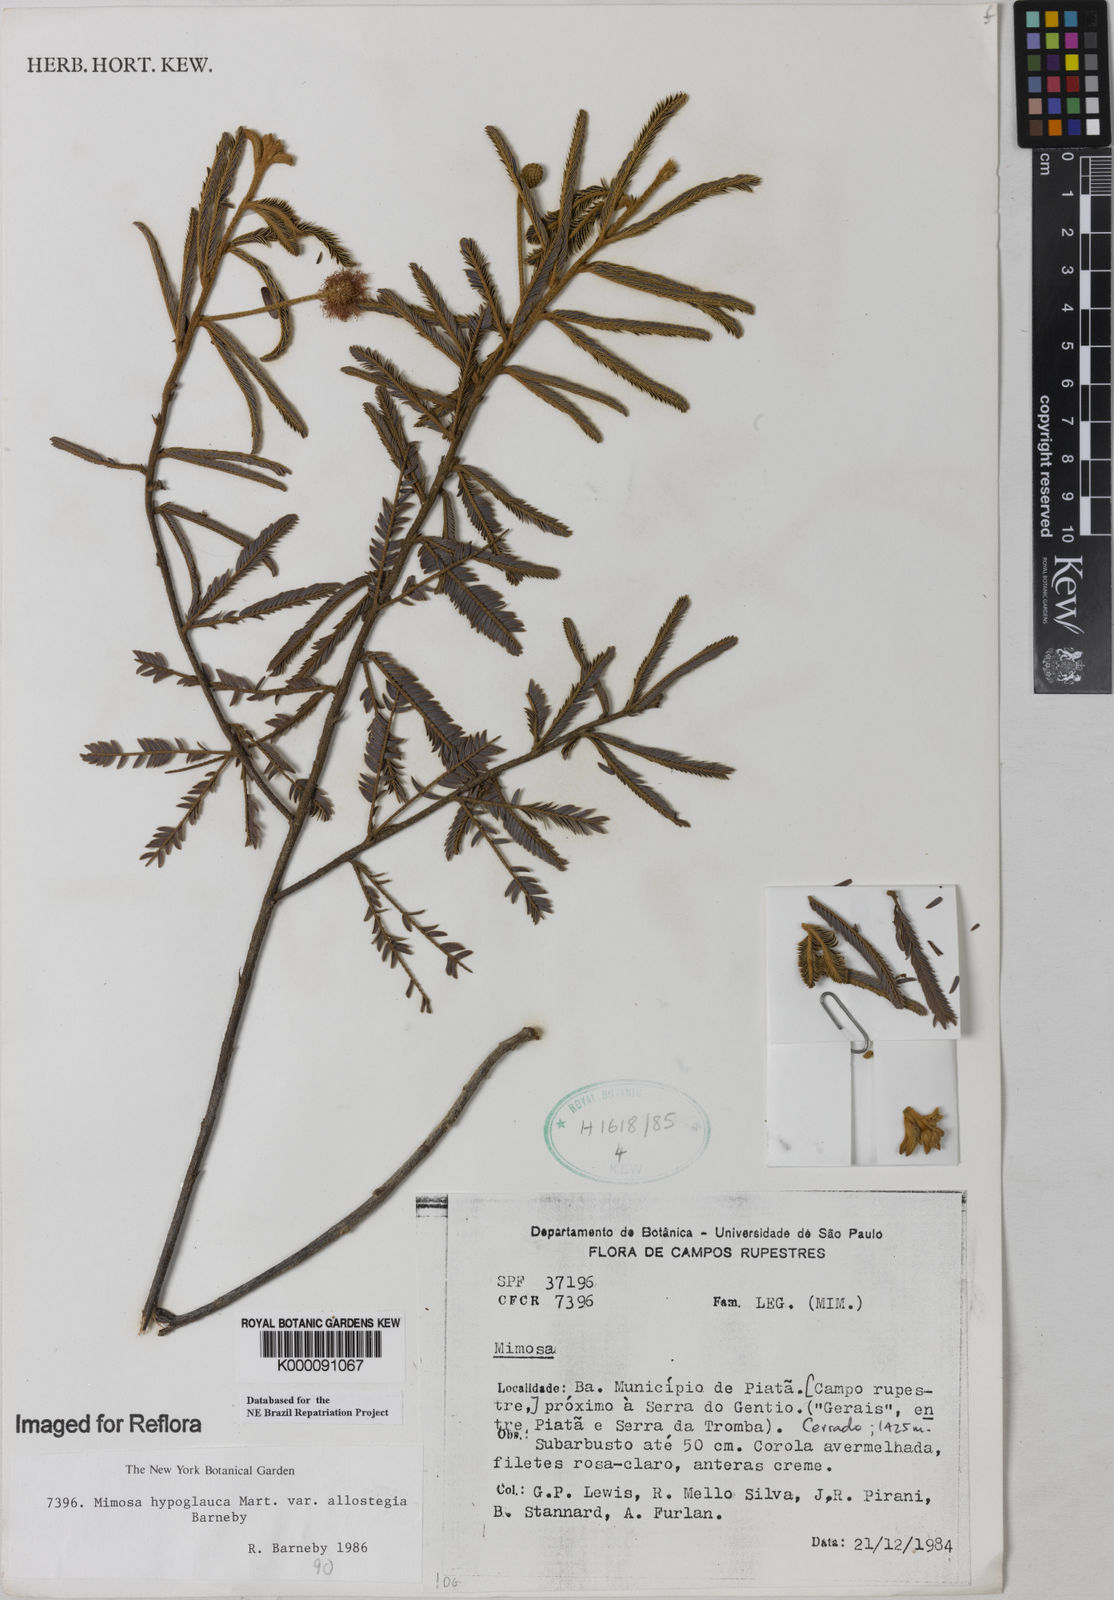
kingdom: Plantae
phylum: Tracheophyta
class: Magnoliopsida
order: Fabales
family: Fabaceae
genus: Mimosa
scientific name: Mimosa hypoglauca
